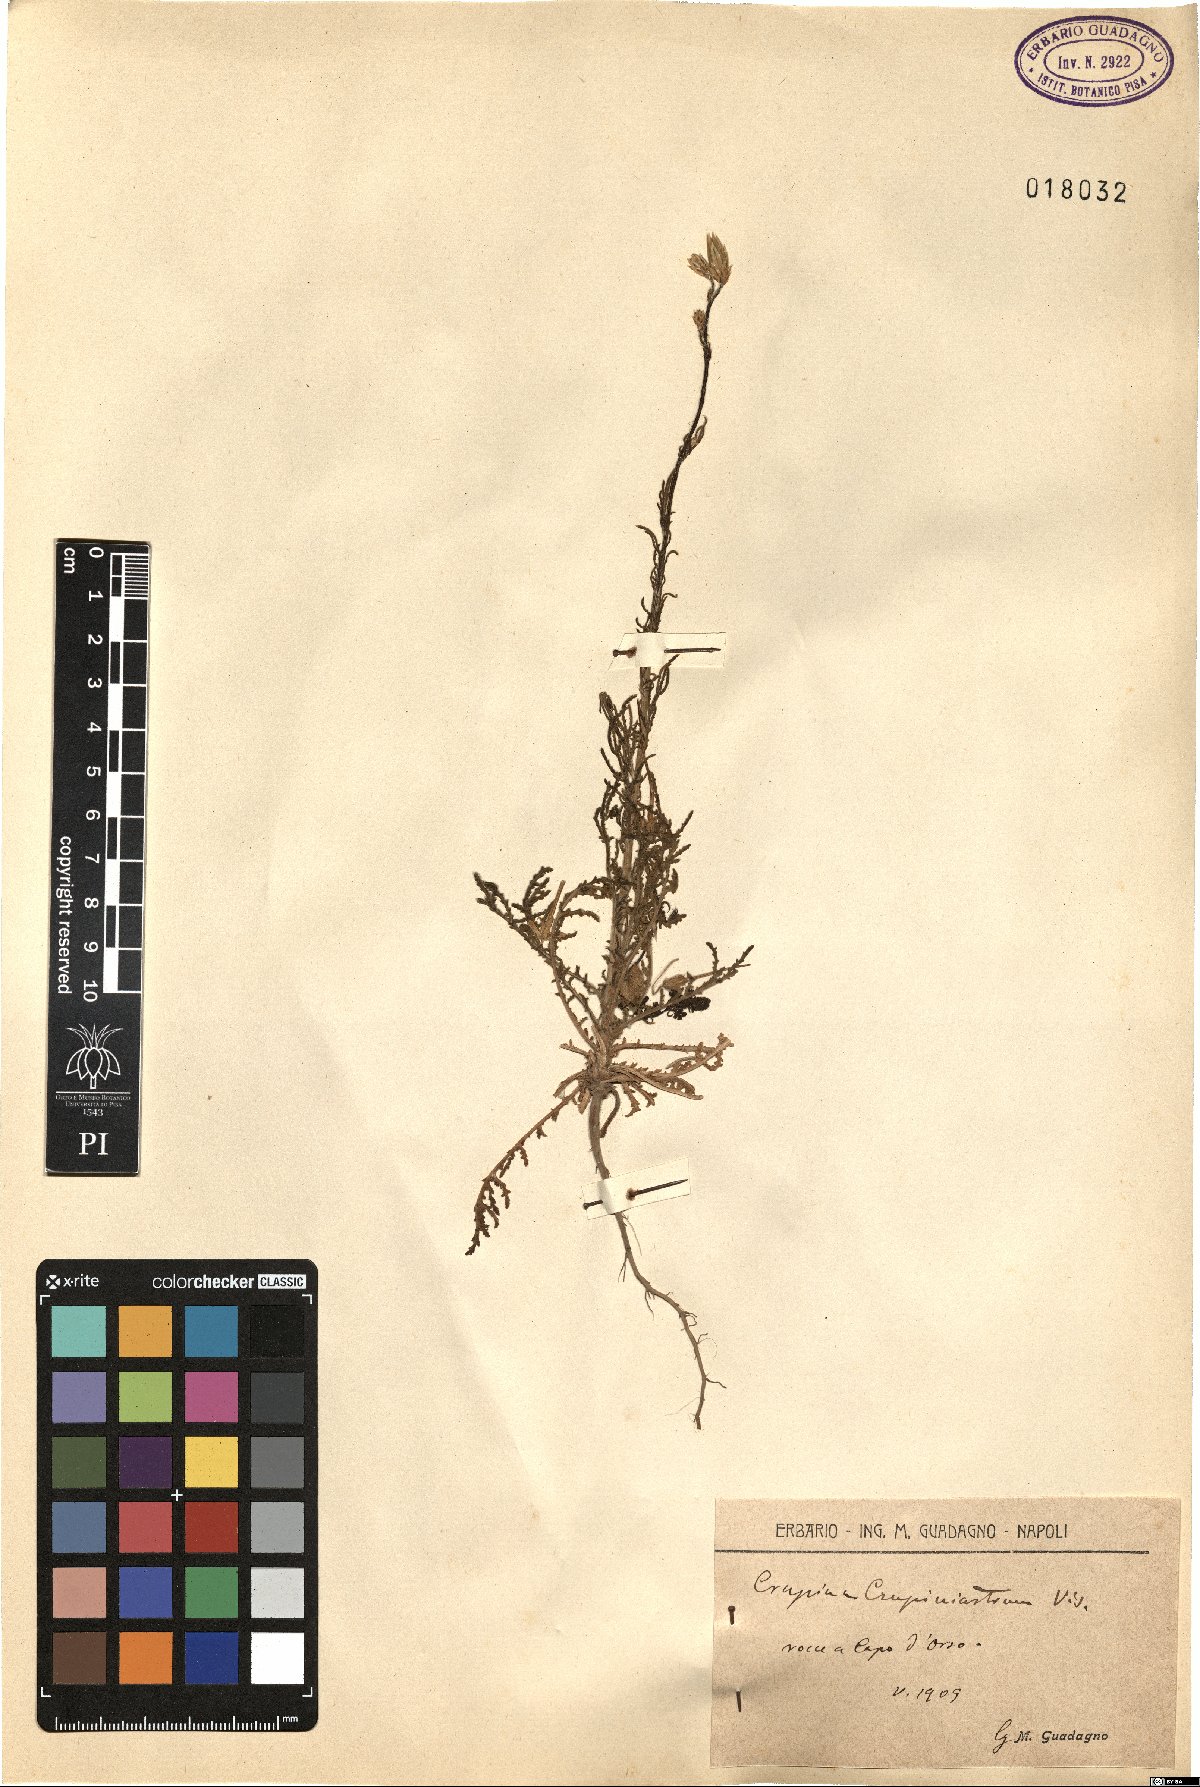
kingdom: Plantae
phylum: Tracheophyta
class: Magnoliopsida
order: Asterales
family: Asteraceae
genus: Crupina
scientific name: Crupina crupinastrum
